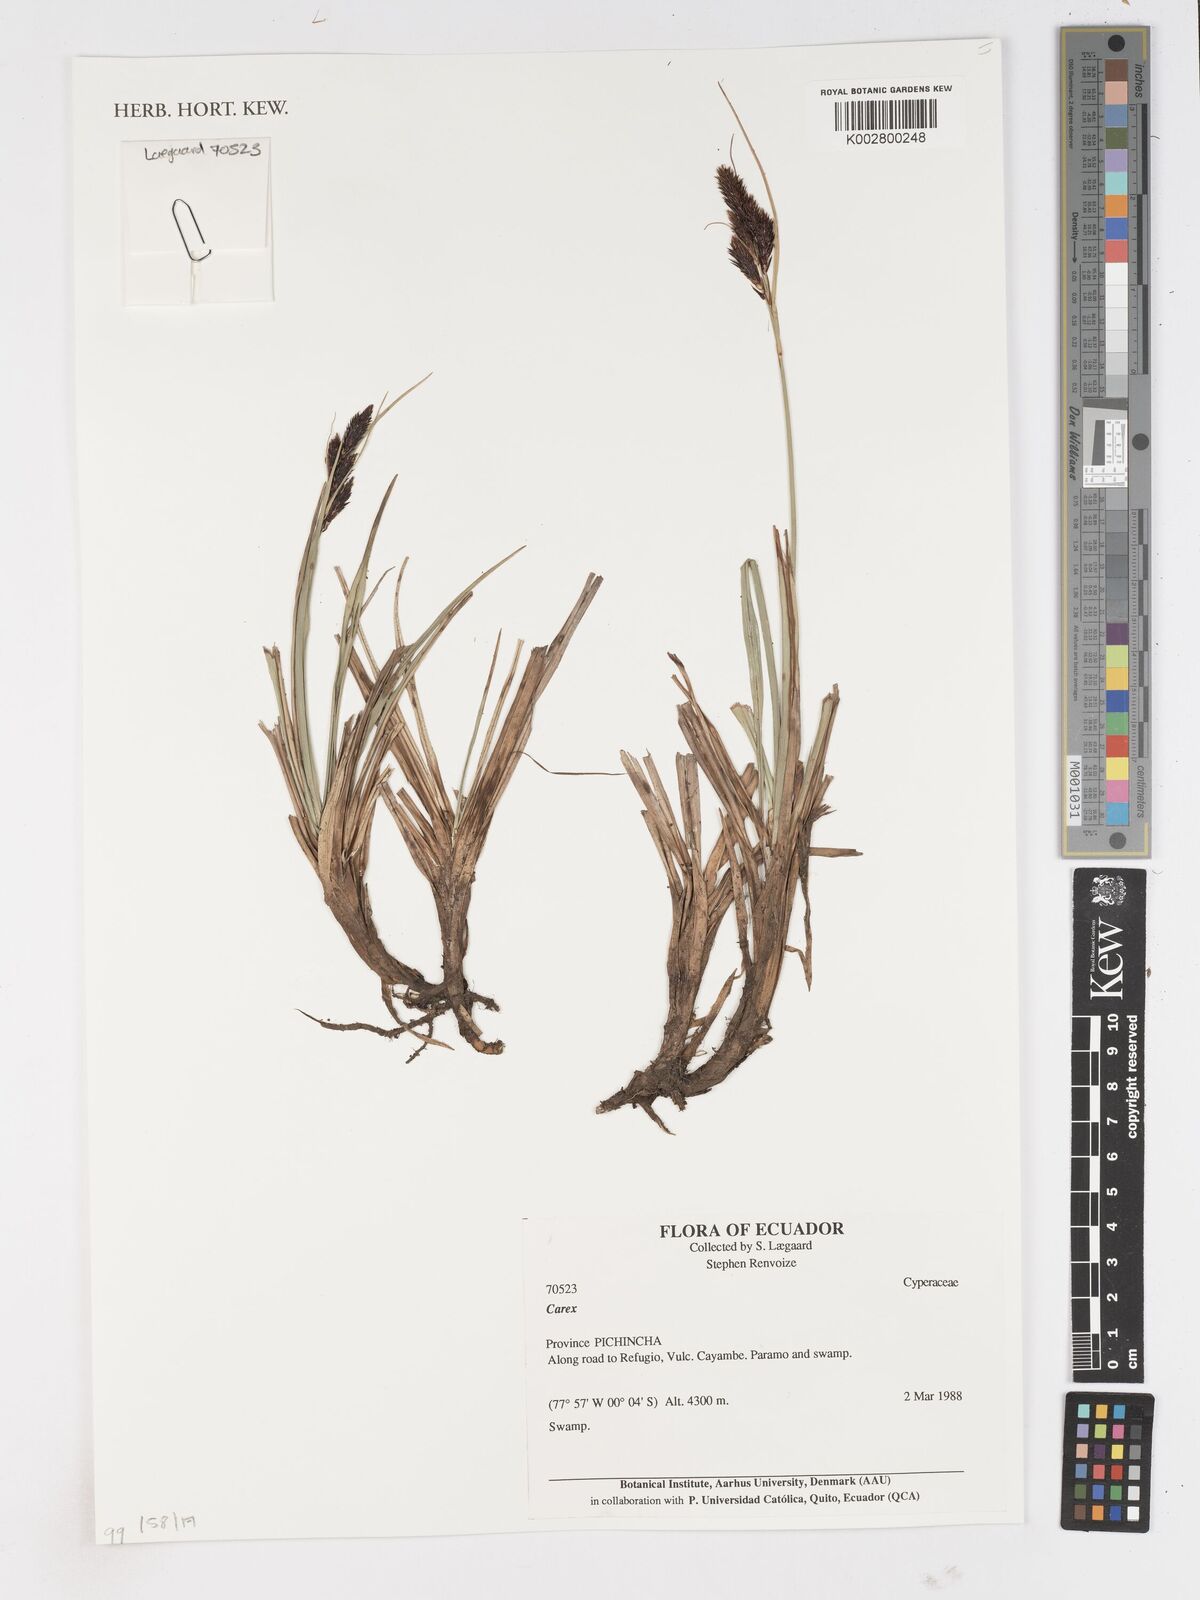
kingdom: Plantae
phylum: Tracheophyta
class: Liliopsida
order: Poales
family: Cyperaceae
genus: Carex
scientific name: Carex
